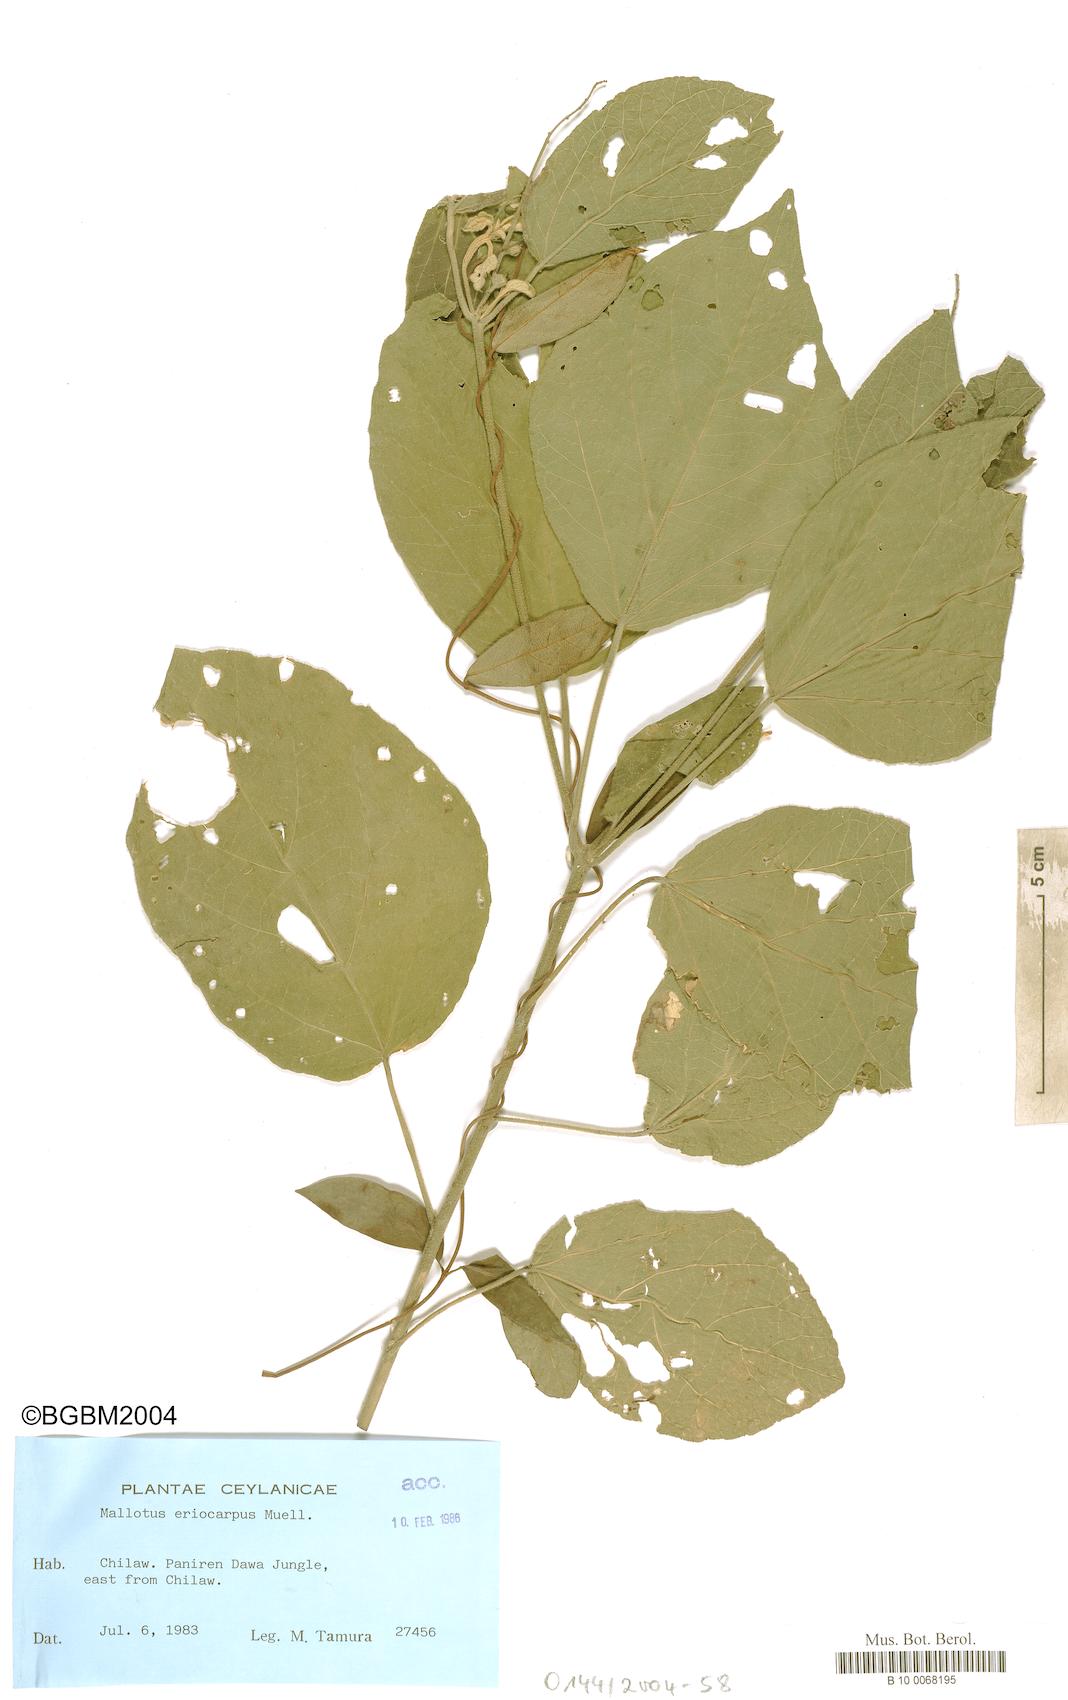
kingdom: Plantae
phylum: Tracheophyta
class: Magnoliopsida
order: Malpighiales
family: Euphorbiaceae
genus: Mallotus
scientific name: Mallotus eriocarpus
